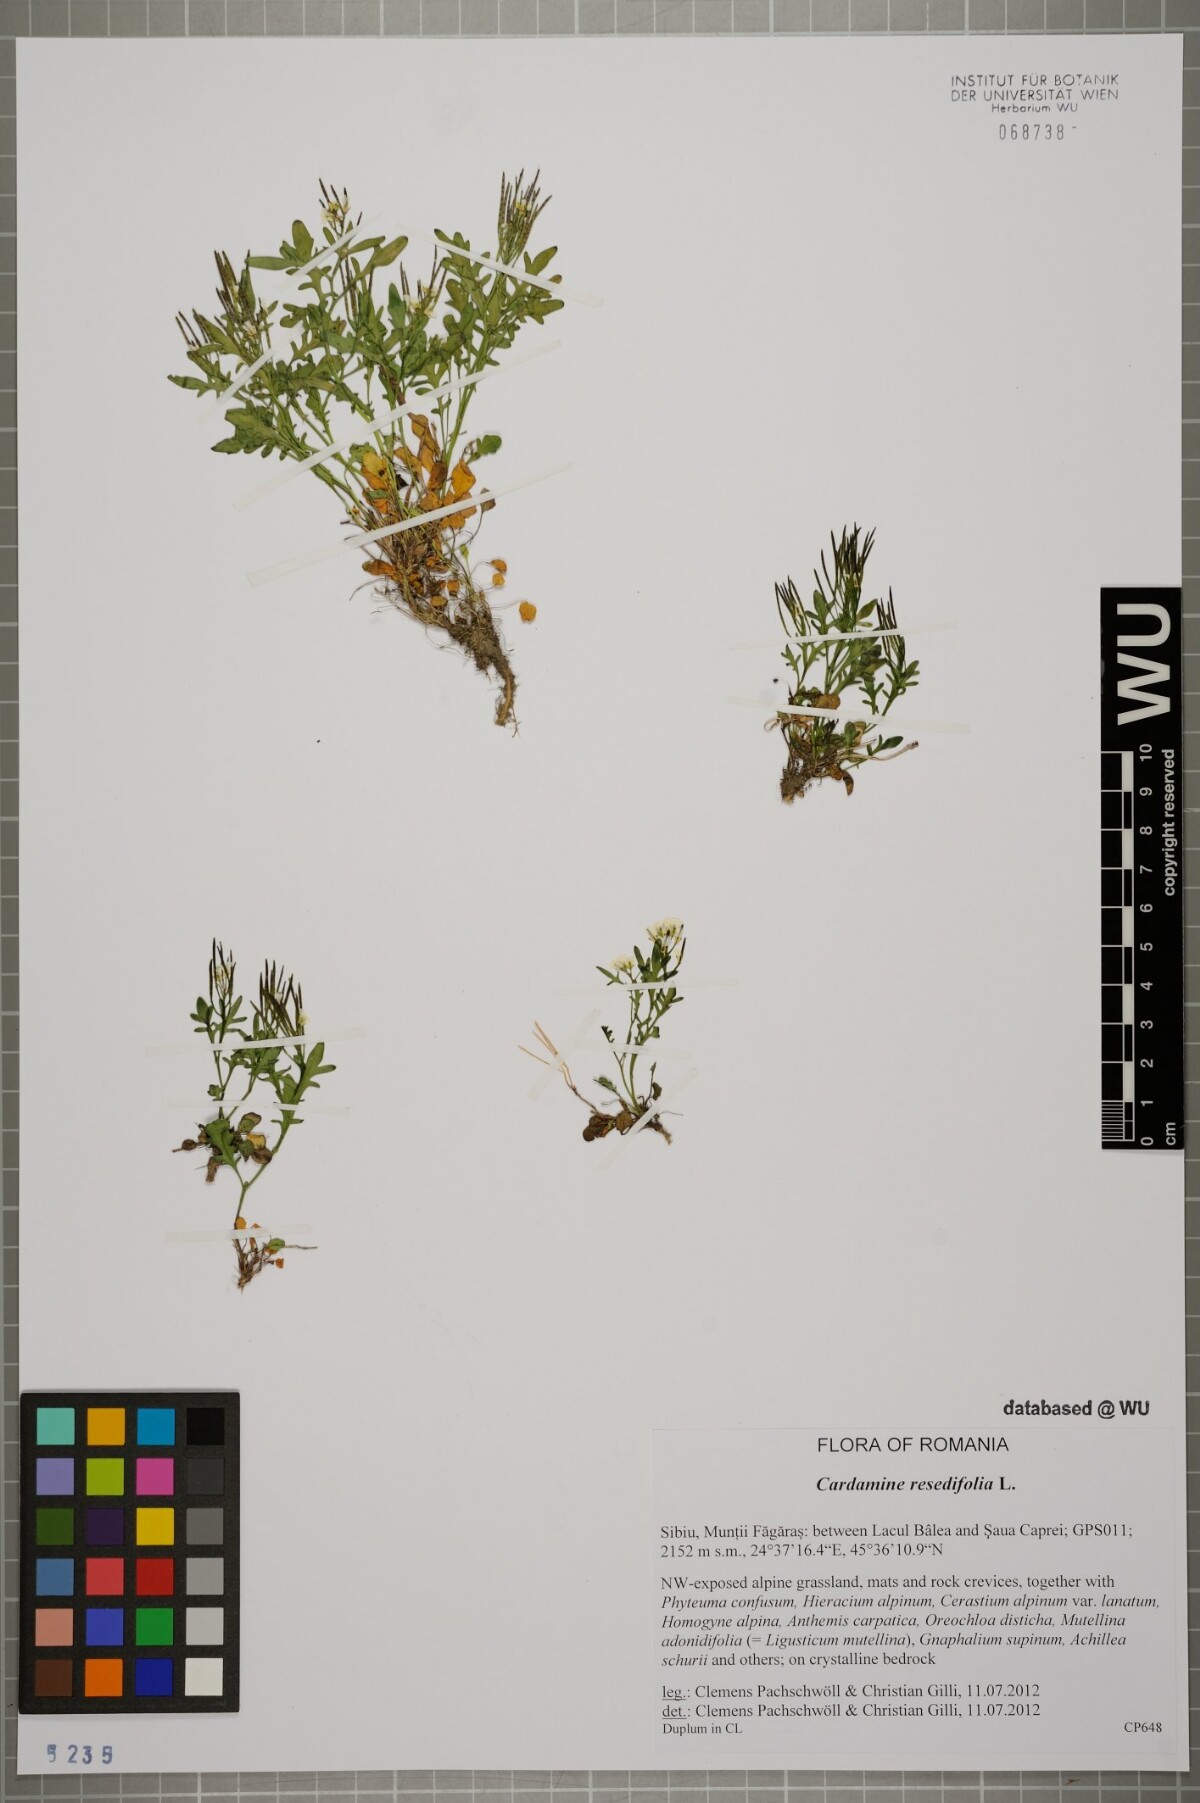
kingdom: Plantae
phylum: Tracheophyta
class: Magnoliopsida
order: Brassicales
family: Brassicaceae
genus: Cardamine
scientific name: Cardamine resedifolia
